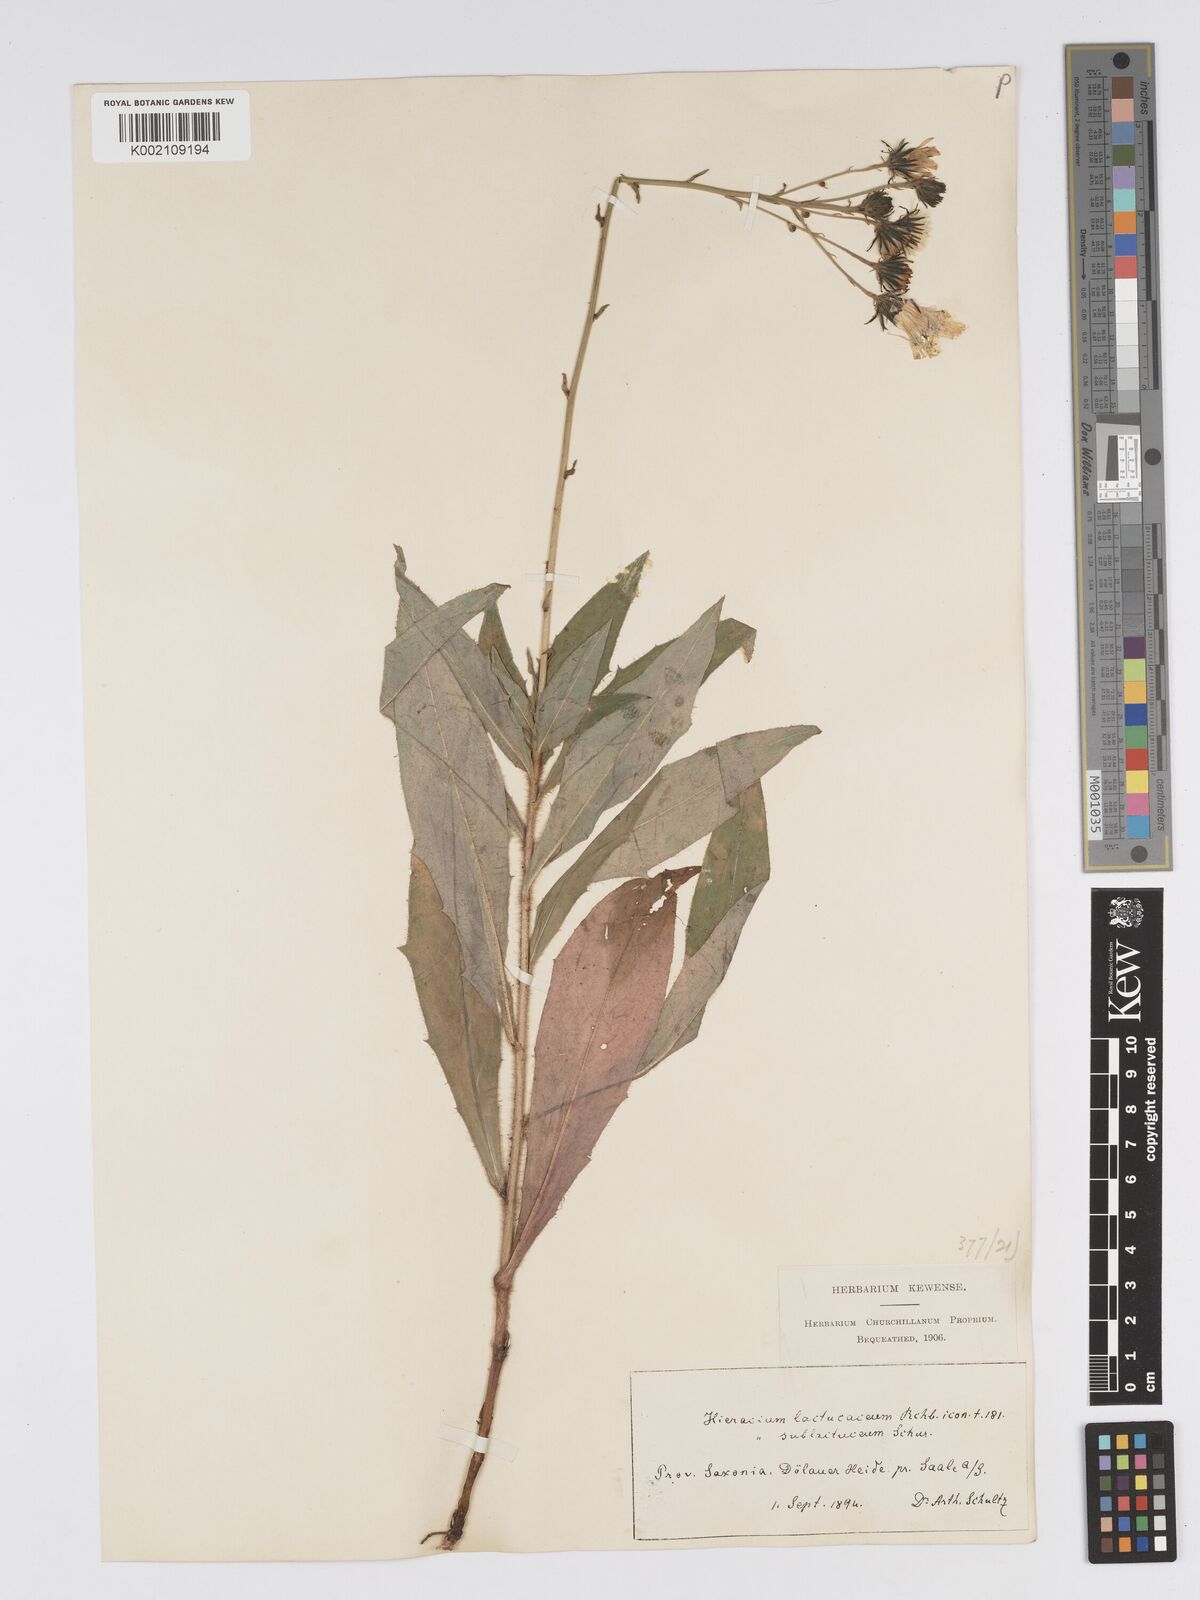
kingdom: Plantae
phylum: Tracheophyta
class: Magnoliopsida
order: Asterales
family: Asteraceae
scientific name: Asteraceae
